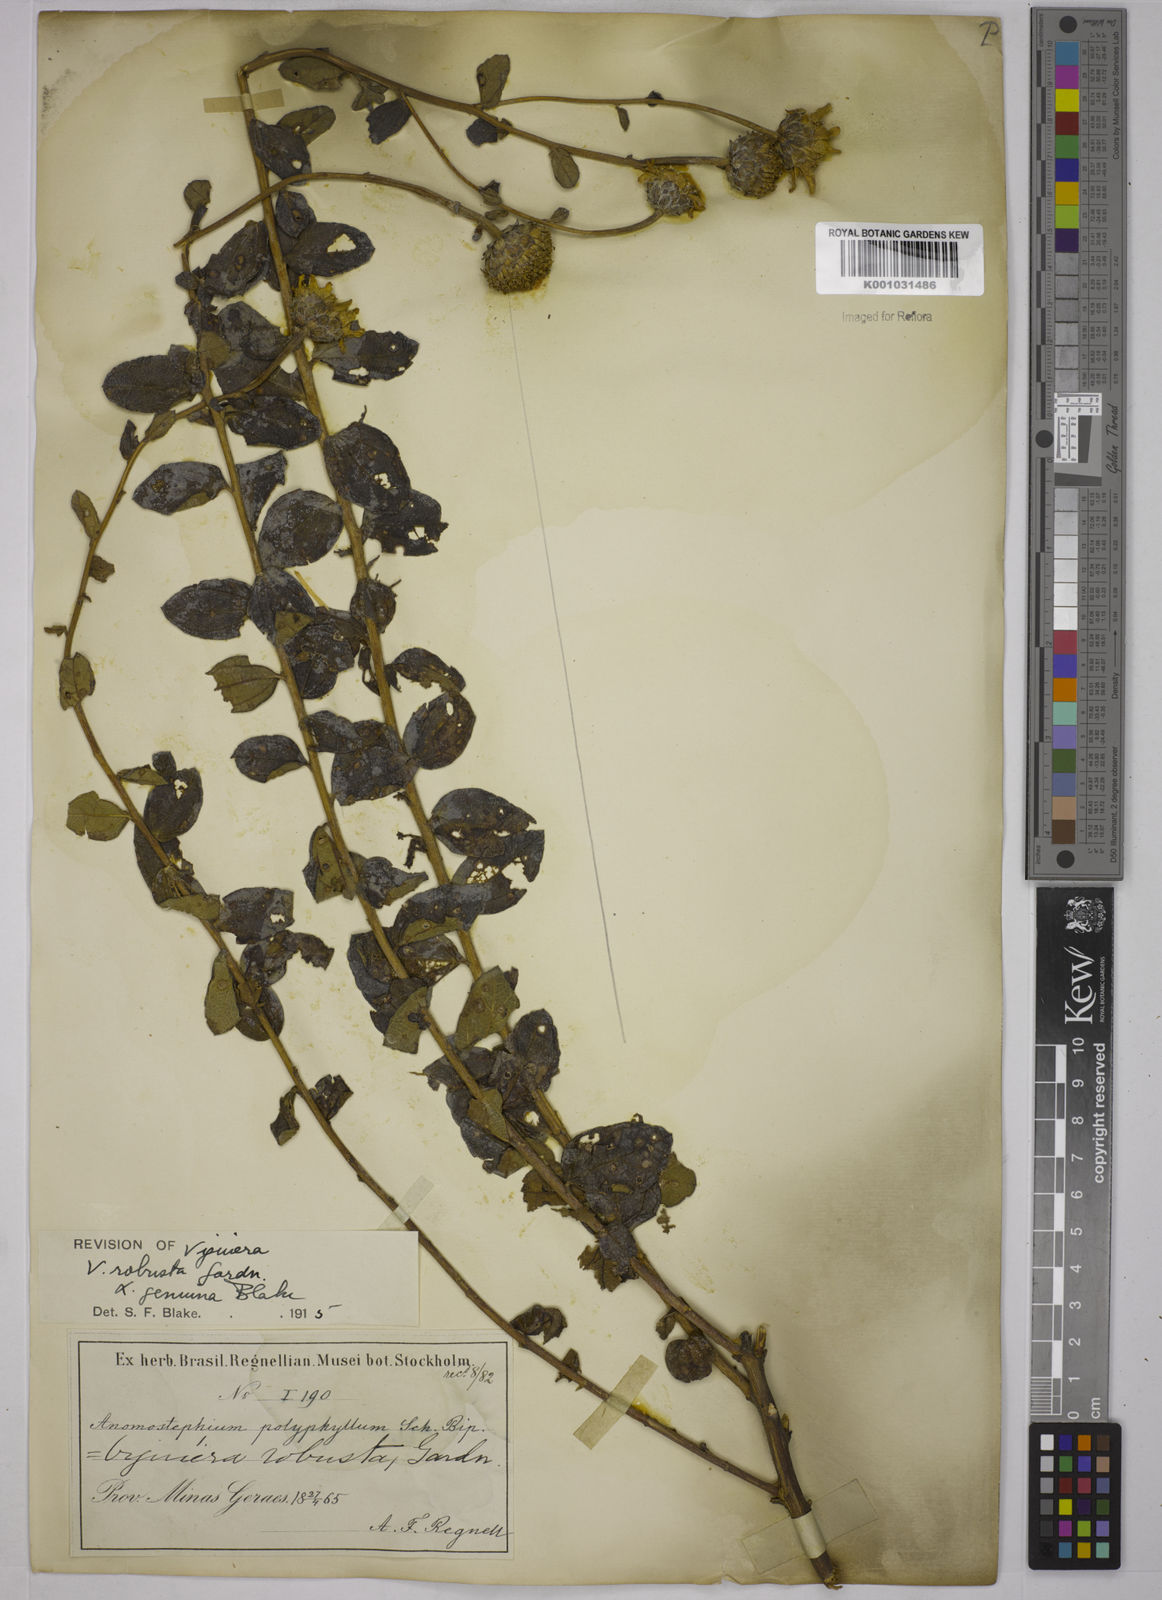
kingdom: Plantae
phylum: Tracheophyta
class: Magnoliopsida
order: Asterales
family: Asteraceae
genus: Aldama
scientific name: Aldama robusta
